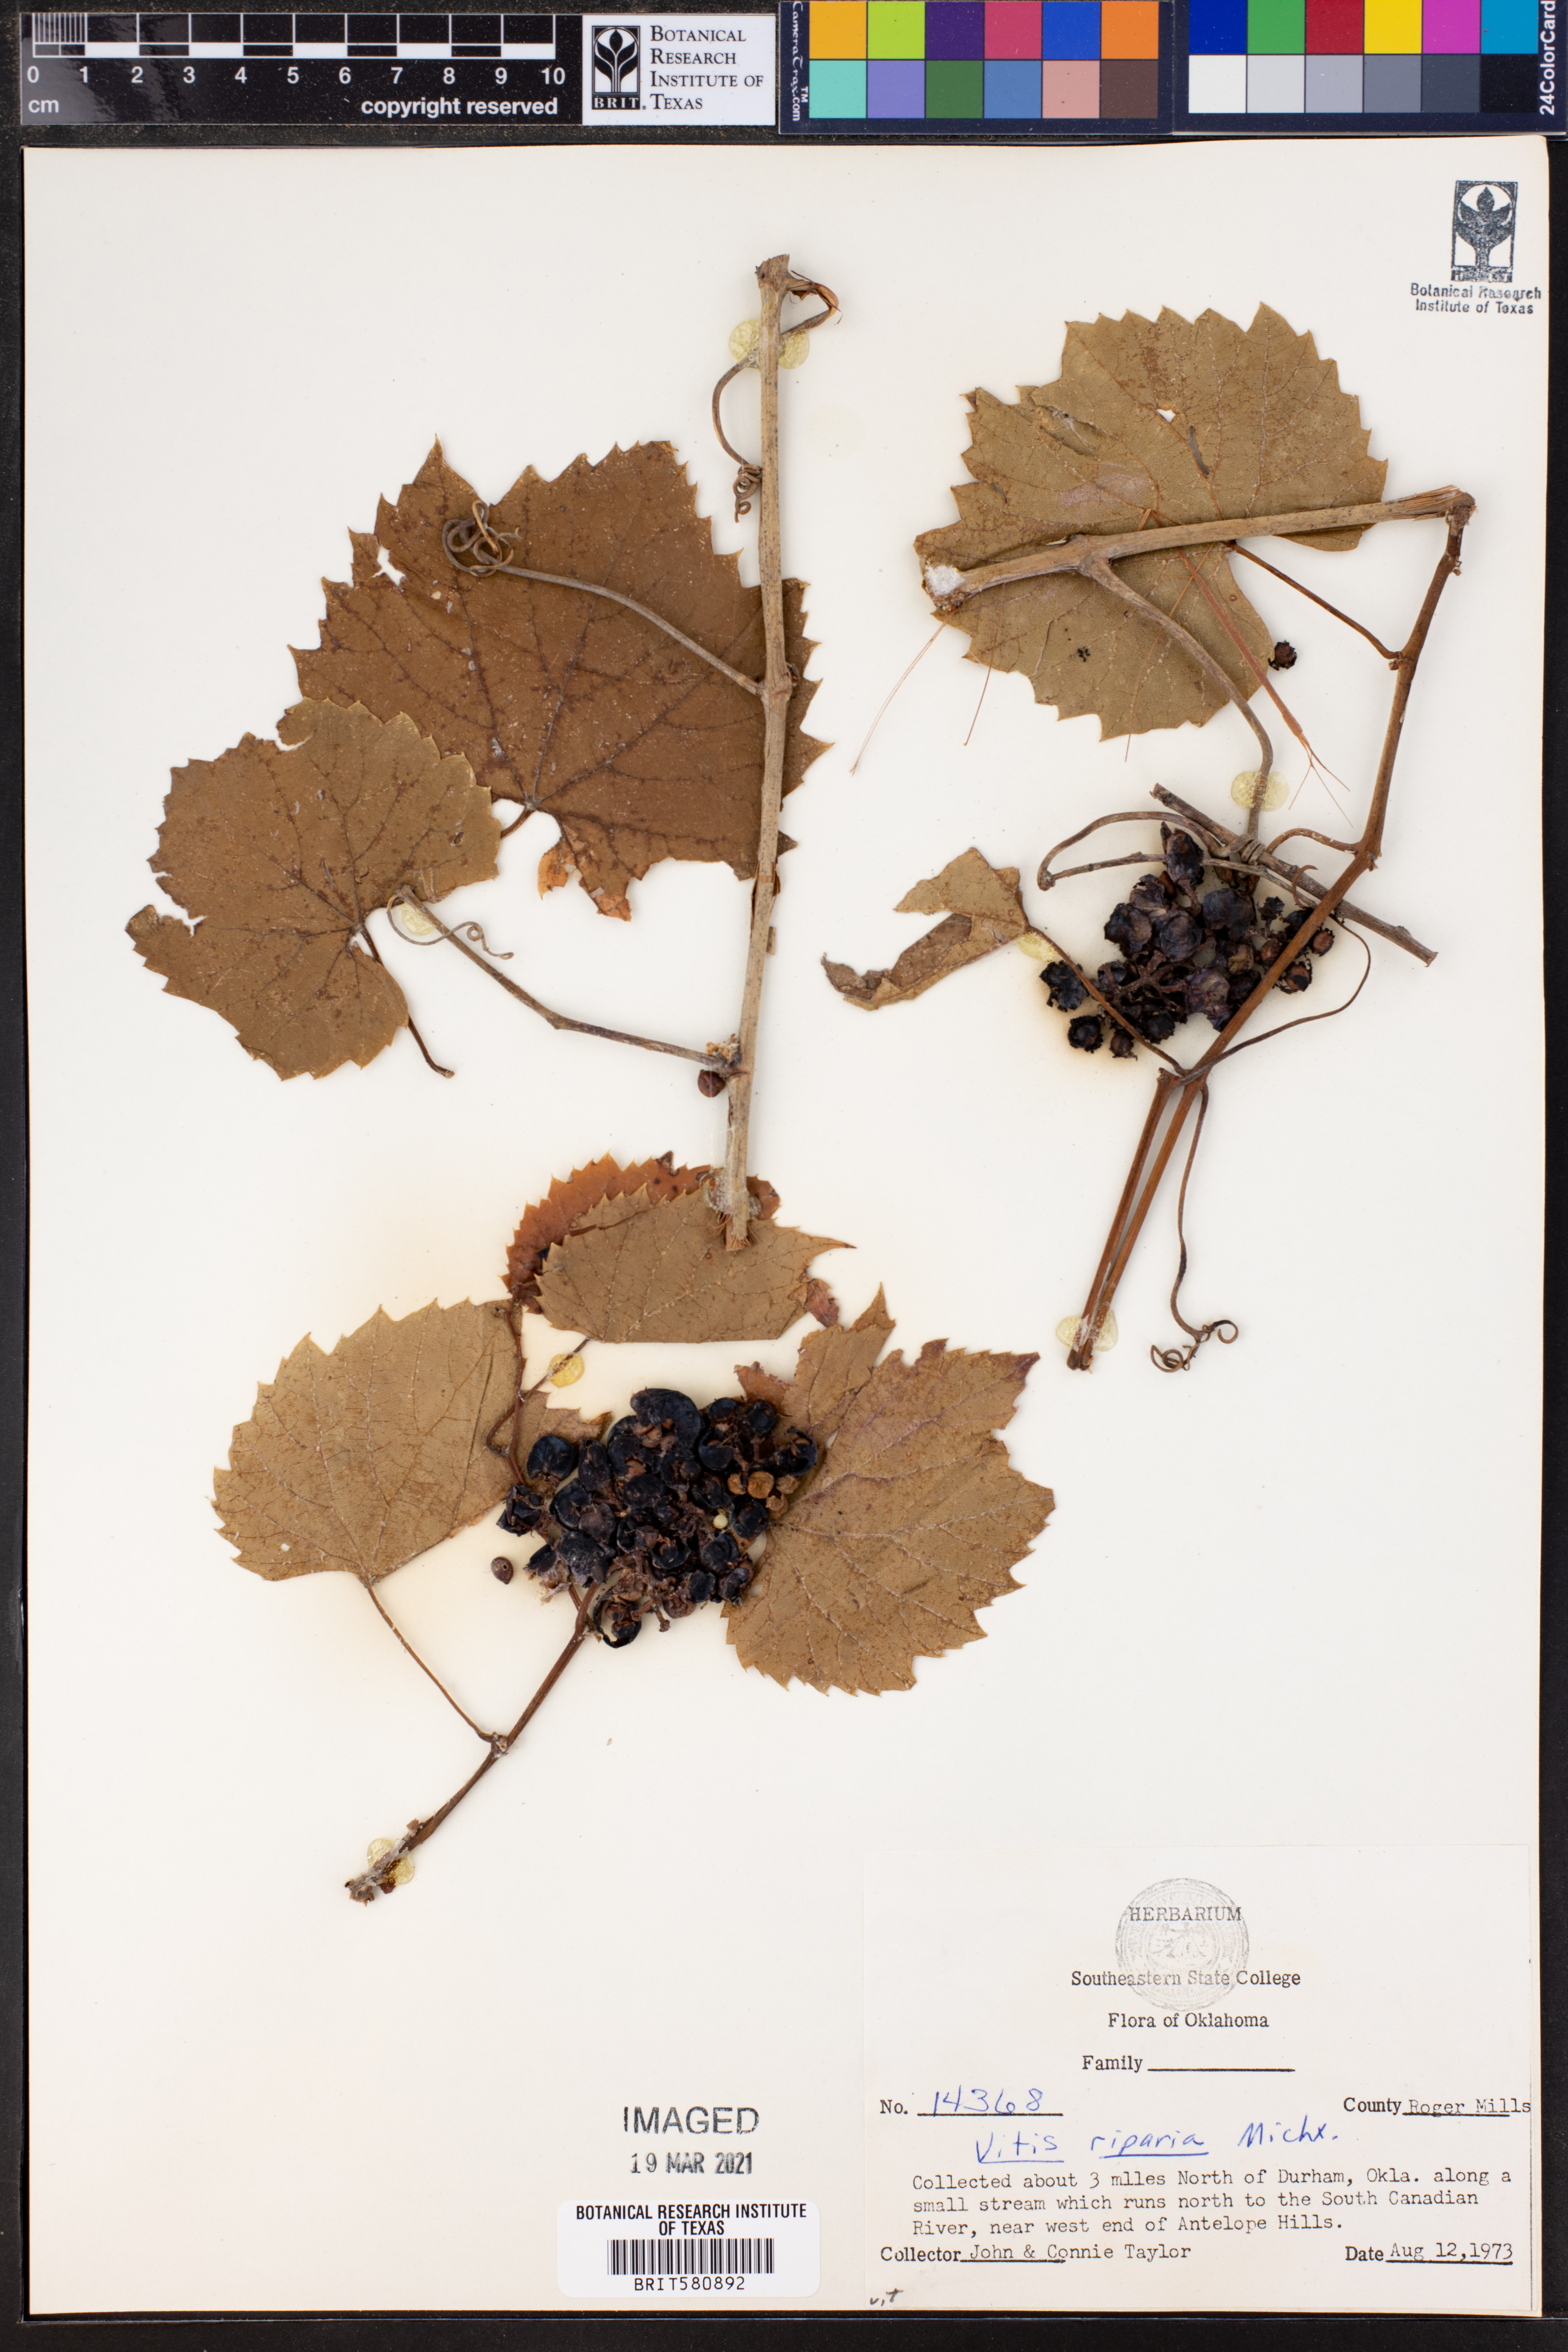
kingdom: Plantae
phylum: Tracheophyta
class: Magnoliopsida
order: Vitales
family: Vitaceae
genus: Vitis
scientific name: Vitis riparia
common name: Frost grape
